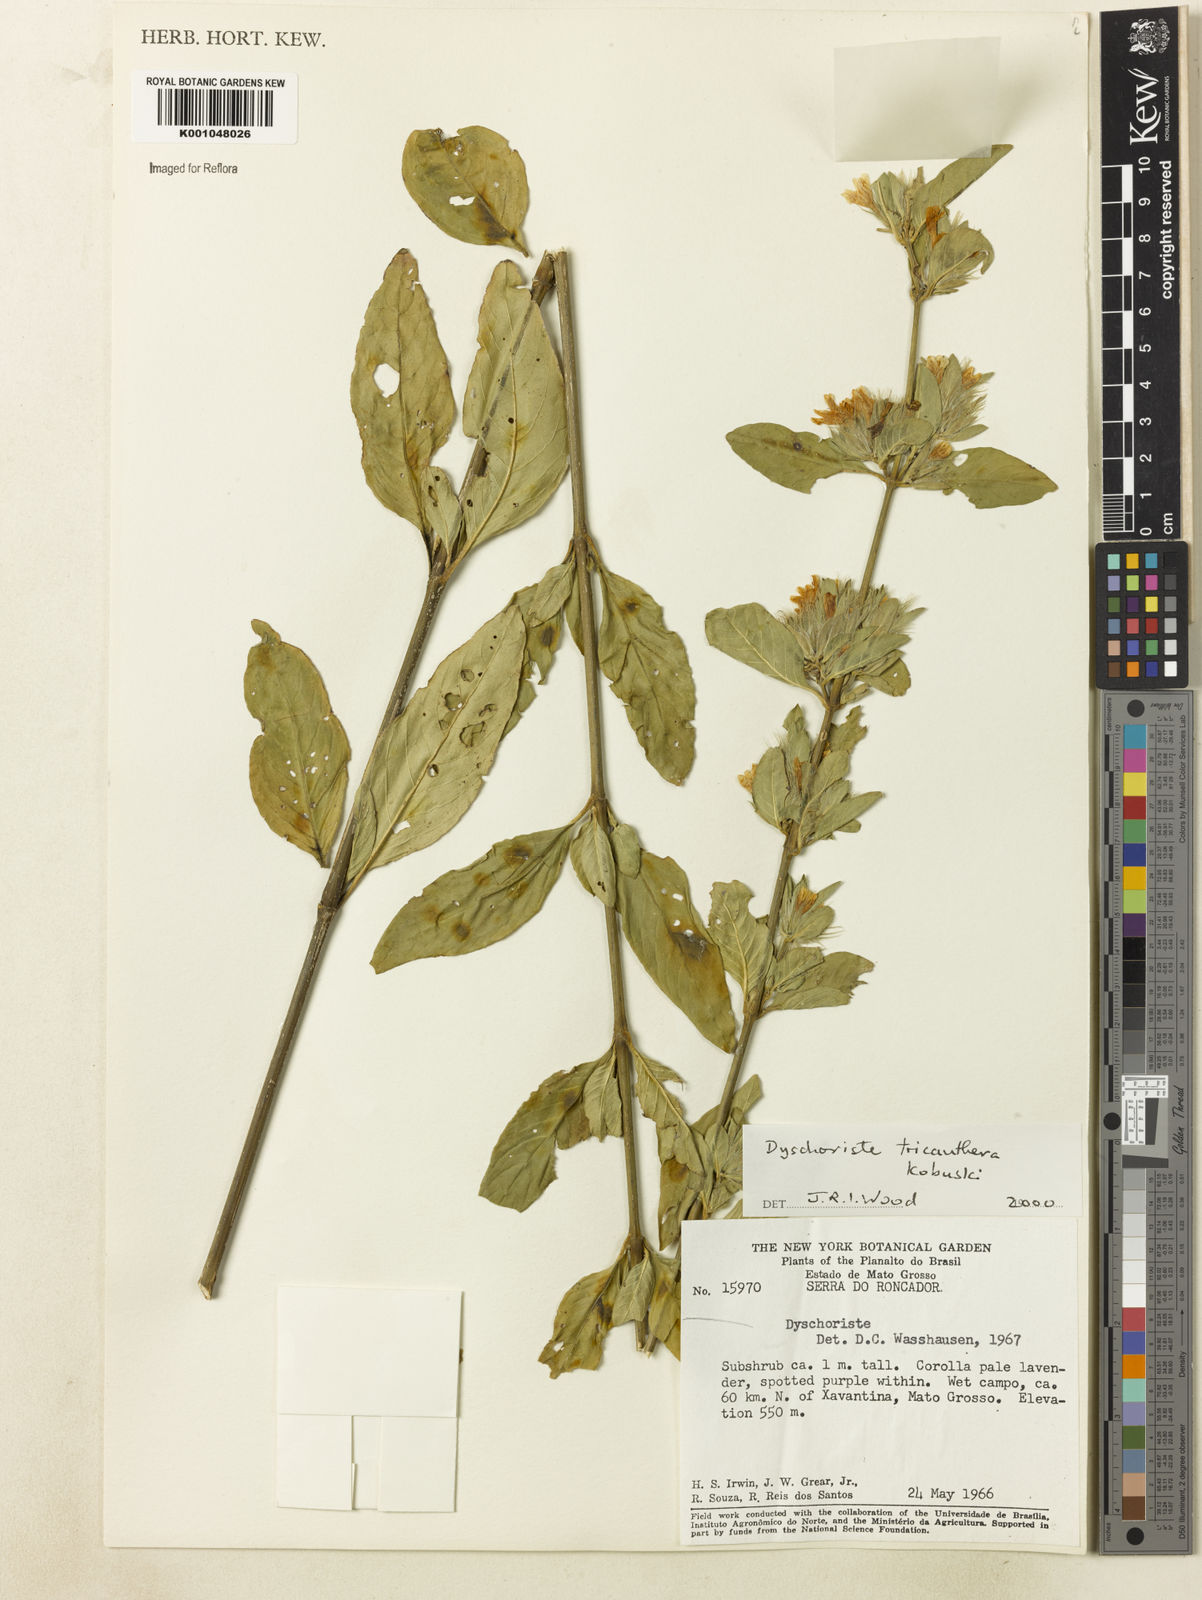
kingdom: Plantae
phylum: Tracheophyta
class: Magnoliopsida
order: Lamiales
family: Acanthaceae
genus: Dyschoriste
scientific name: Dyschoriste trichanthera
